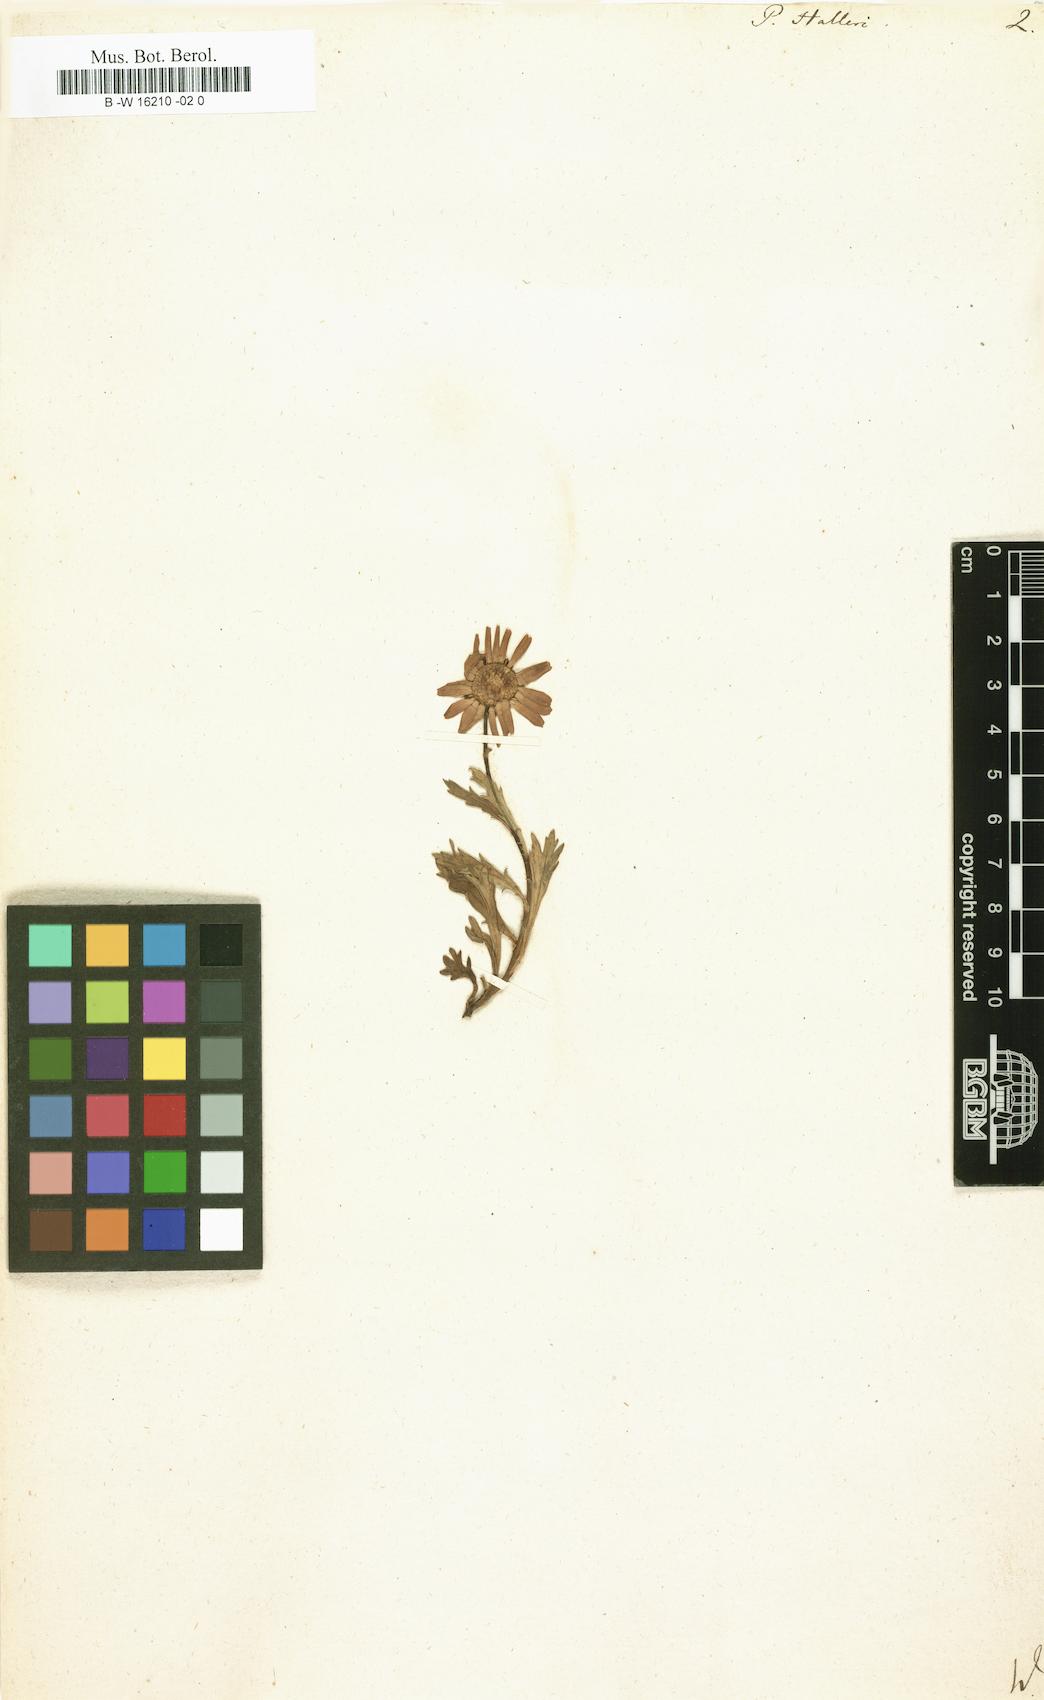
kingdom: Plantae
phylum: Tracheophyta
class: Magnoliopsida
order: Asterales
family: Asteraceae
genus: Leucanthemum
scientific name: Leucanthemum halleri
